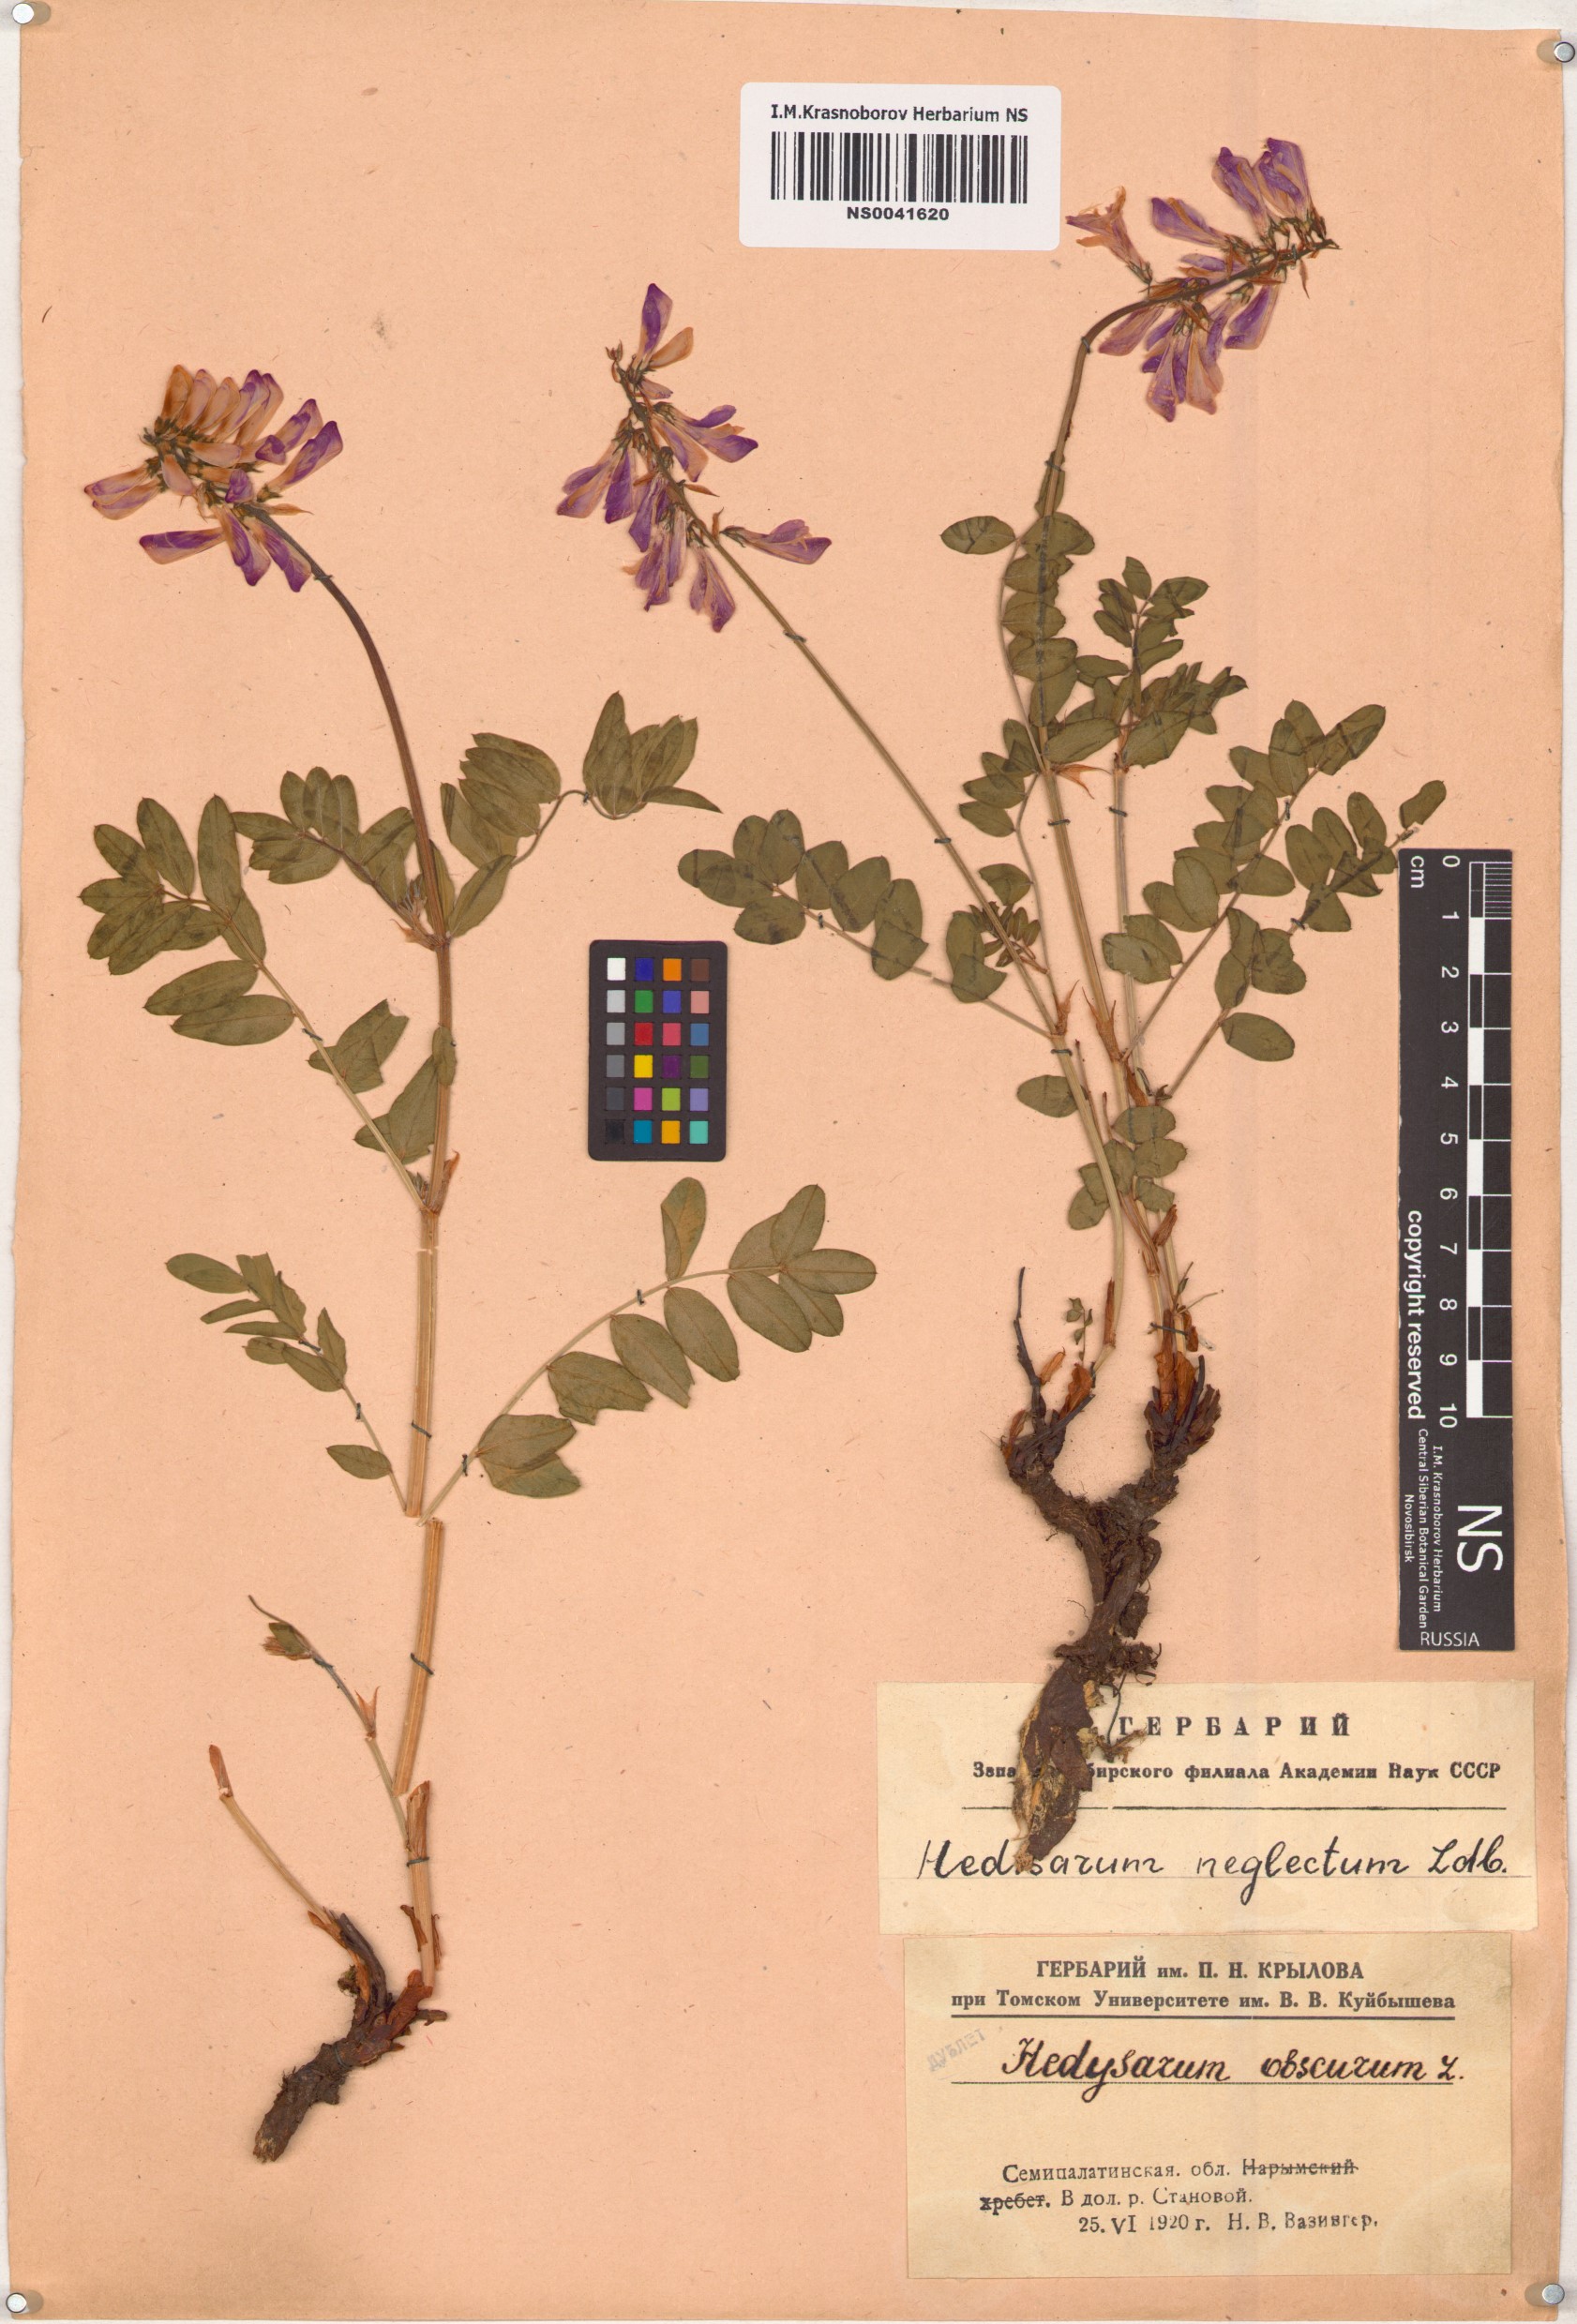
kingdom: Plantae
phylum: Tracheophyta
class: Magnoliopsida
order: Fabales
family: Fabaceae
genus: Hedysarum
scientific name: Hedysarum neglectum
